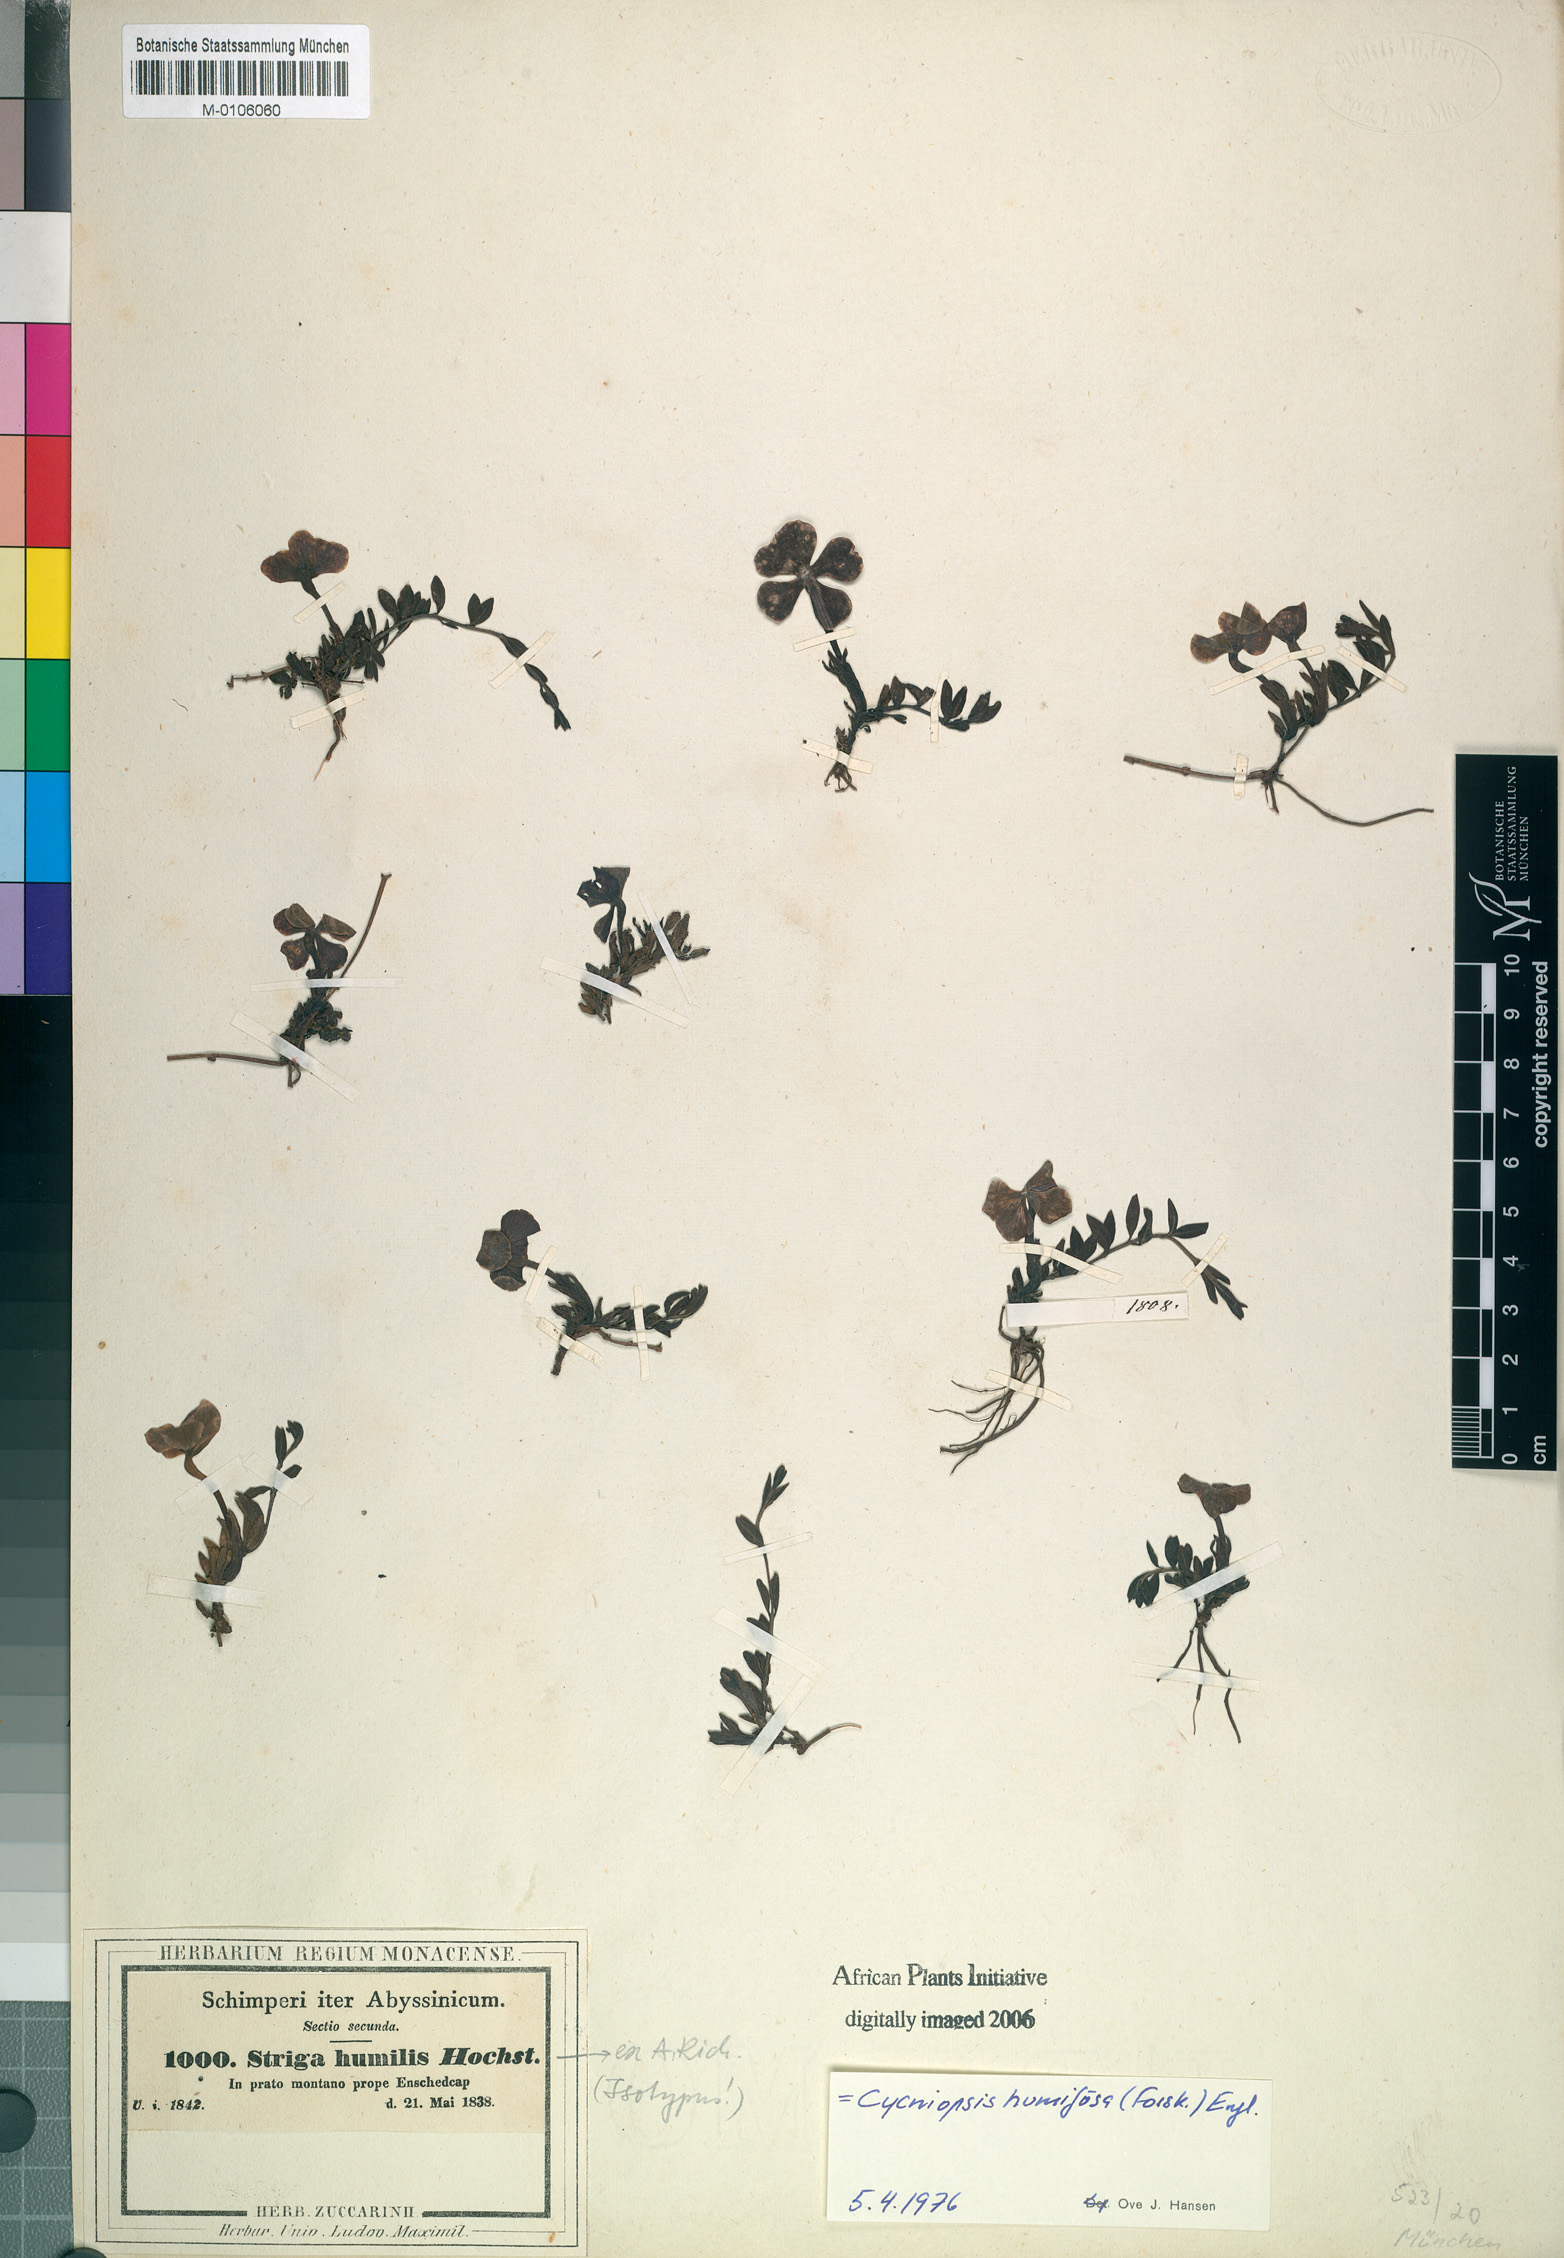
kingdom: Plantae
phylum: Tracheophyta
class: Magnoliopsida
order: Lamiales
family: Orobanchaceae
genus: Cycniopsis
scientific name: Cycniopsis humifusa
